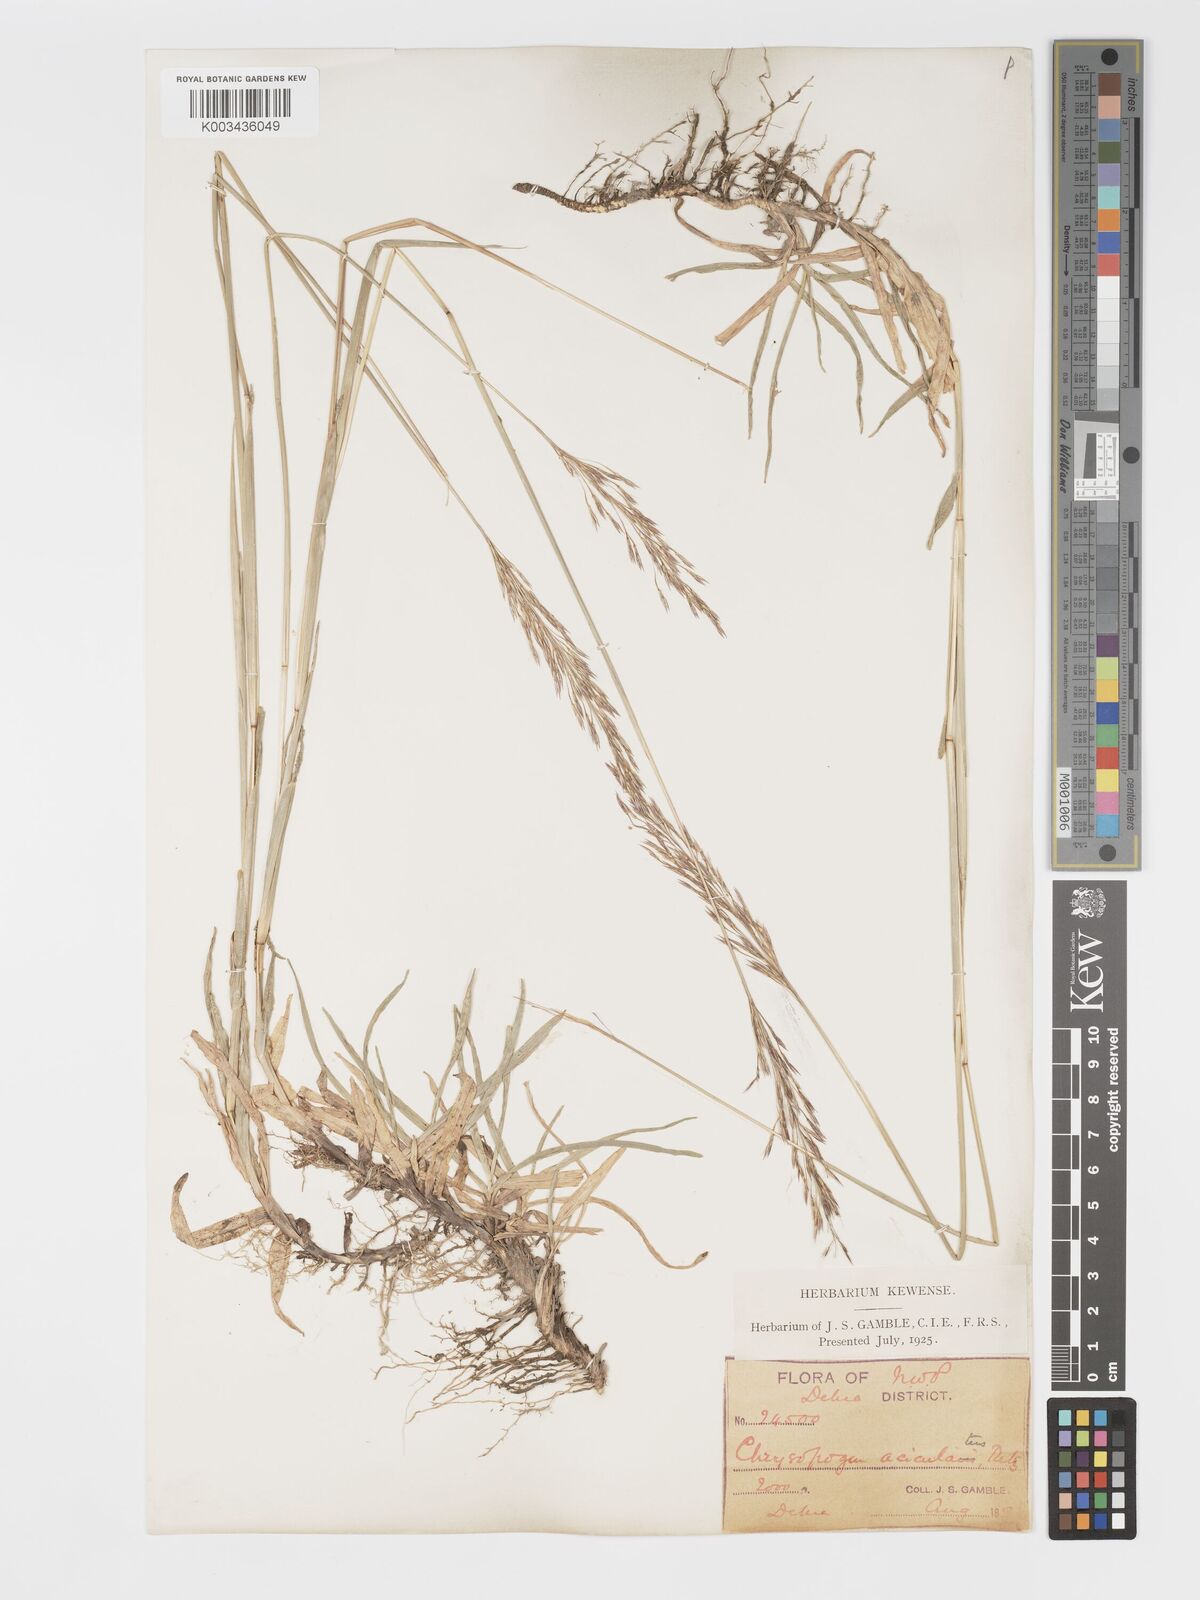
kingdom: Plantae
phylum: Tracheophyta
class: Liliopsida
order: Poales
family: Poaceae
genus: Chrysopogon
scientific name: Chrysopogon aciculatus
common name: Pilipiliula
